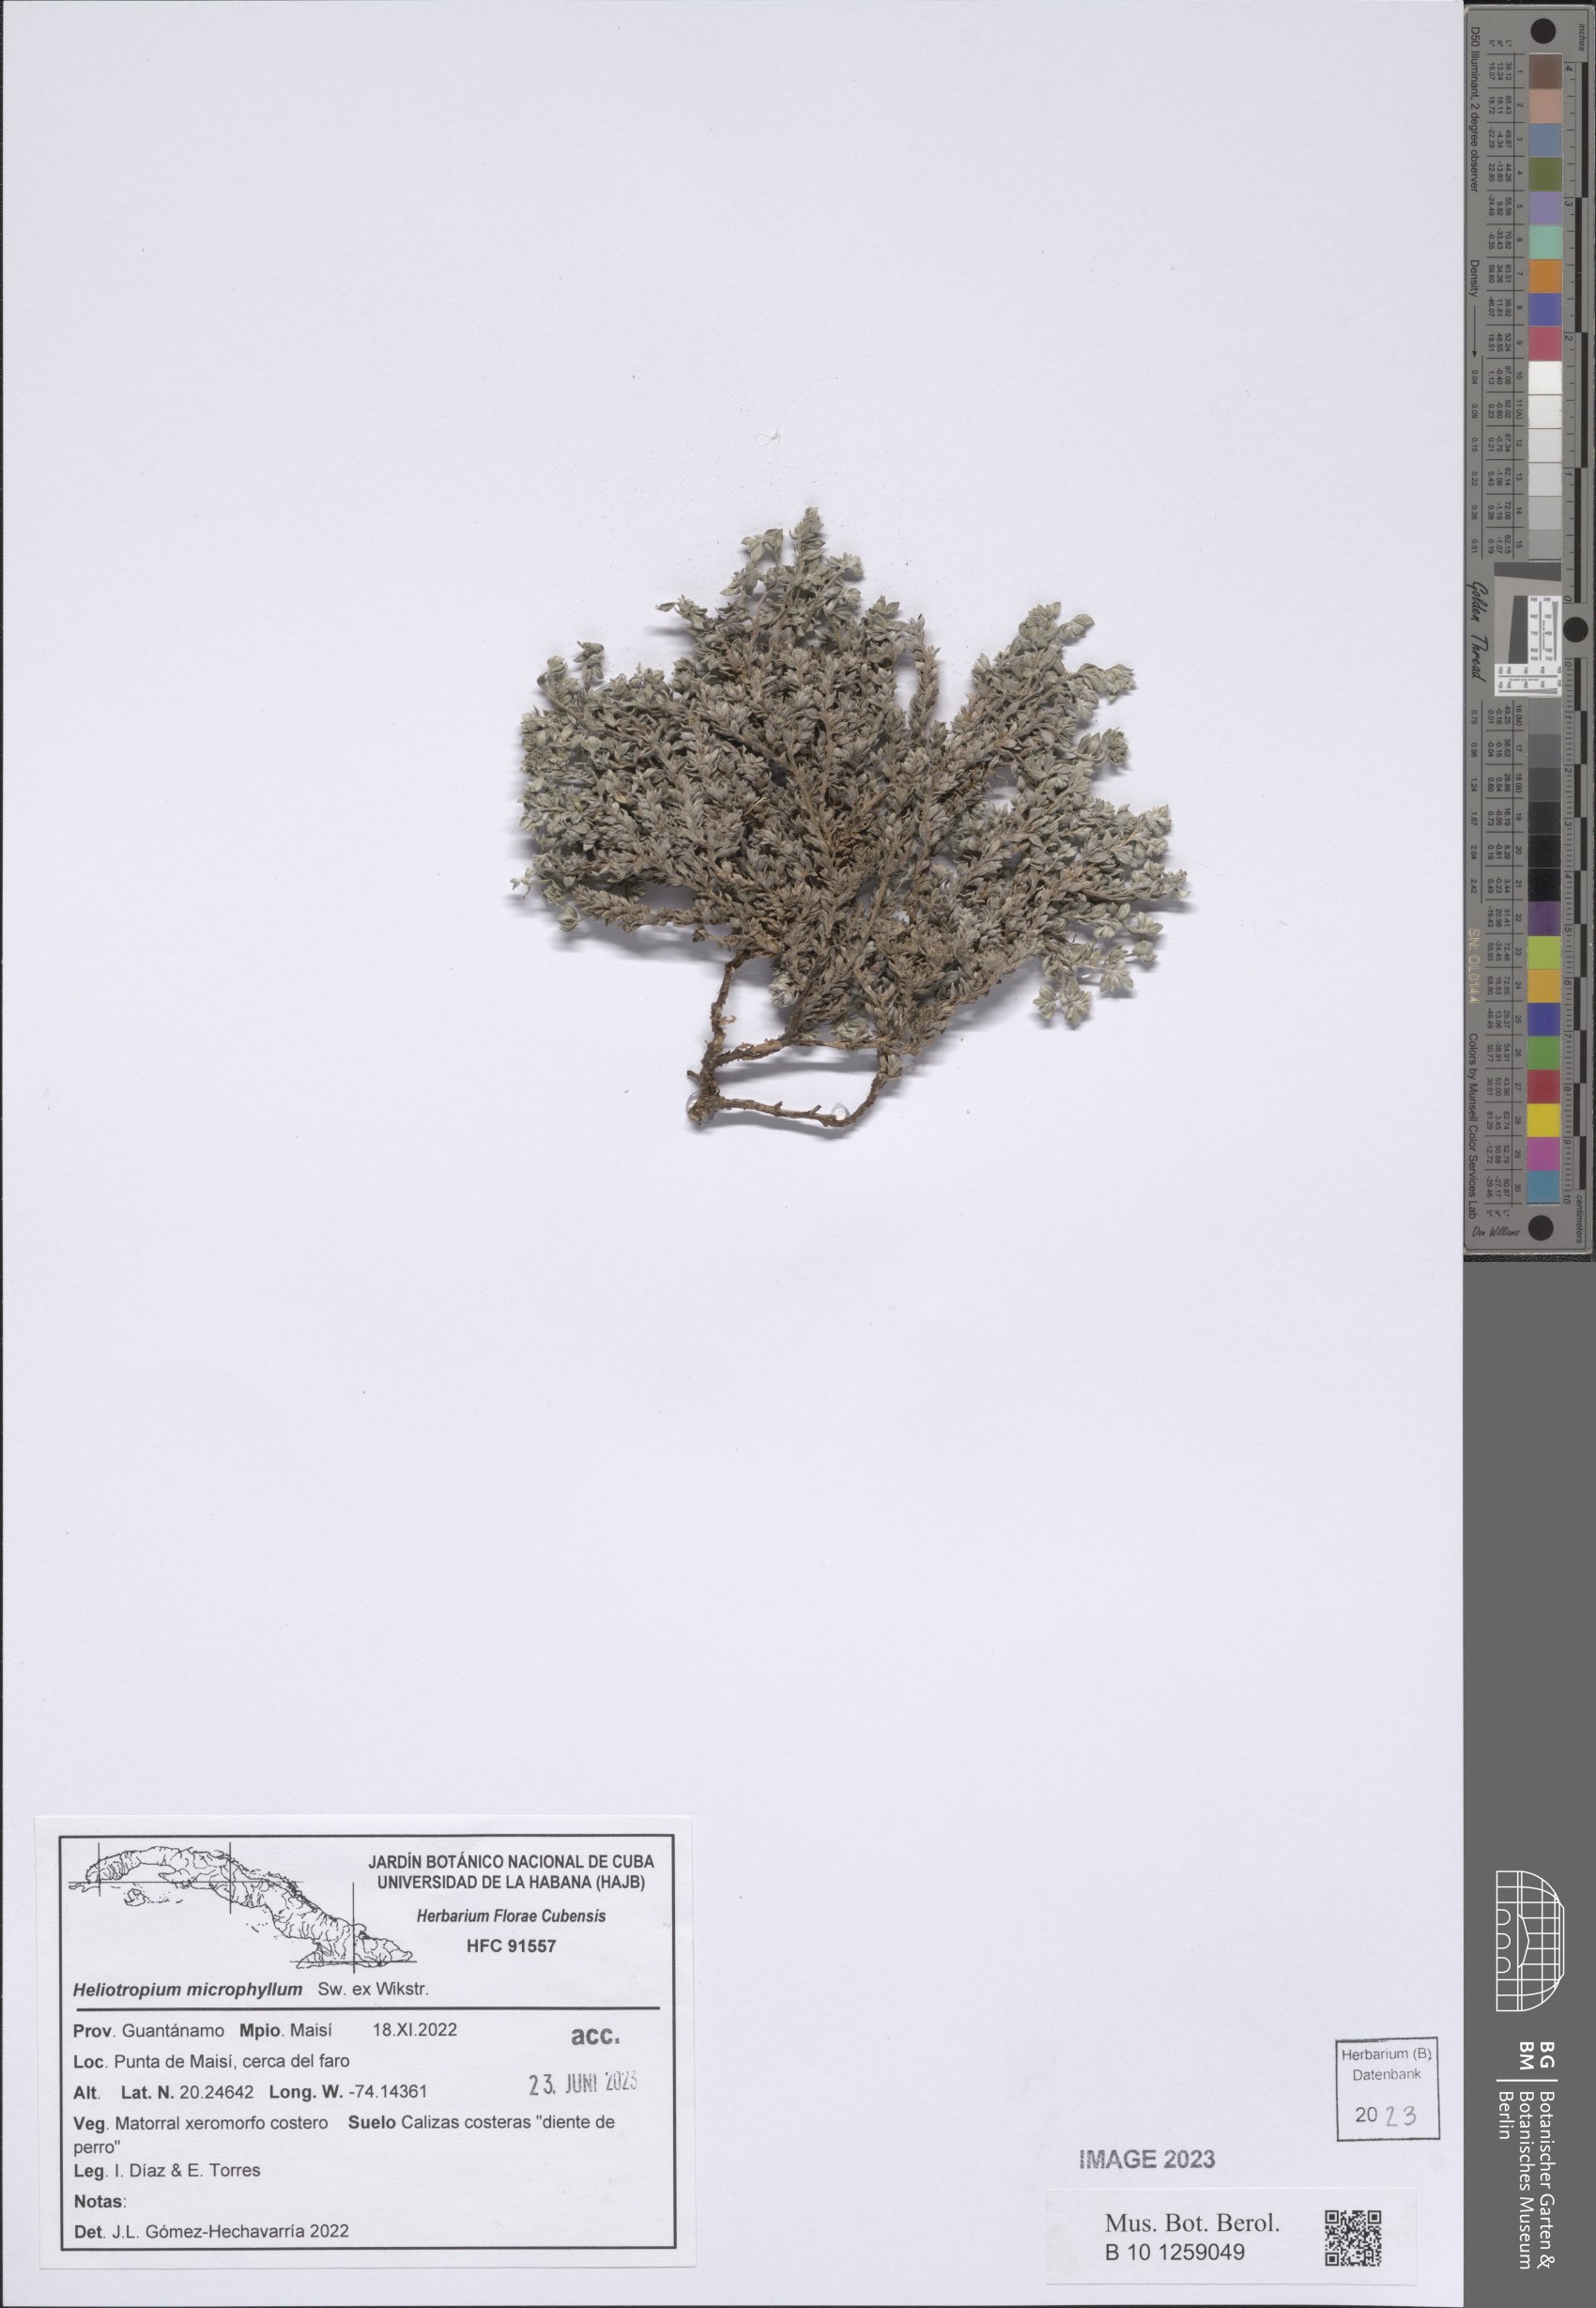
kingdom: Plantae
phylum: Tracheophyta
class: Magnoliopsida
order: Boraginales
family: Heliotropiaceae
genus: Euploca
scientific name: Euploca microphylla
